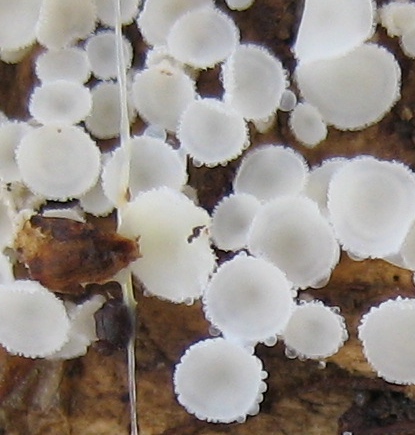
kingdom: Fungi
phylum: Ascomycota
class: Leotiomycetes
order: Helotiales
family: Lachnaceae
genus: Lachnum
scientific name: Lachnum
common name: frynseskive
